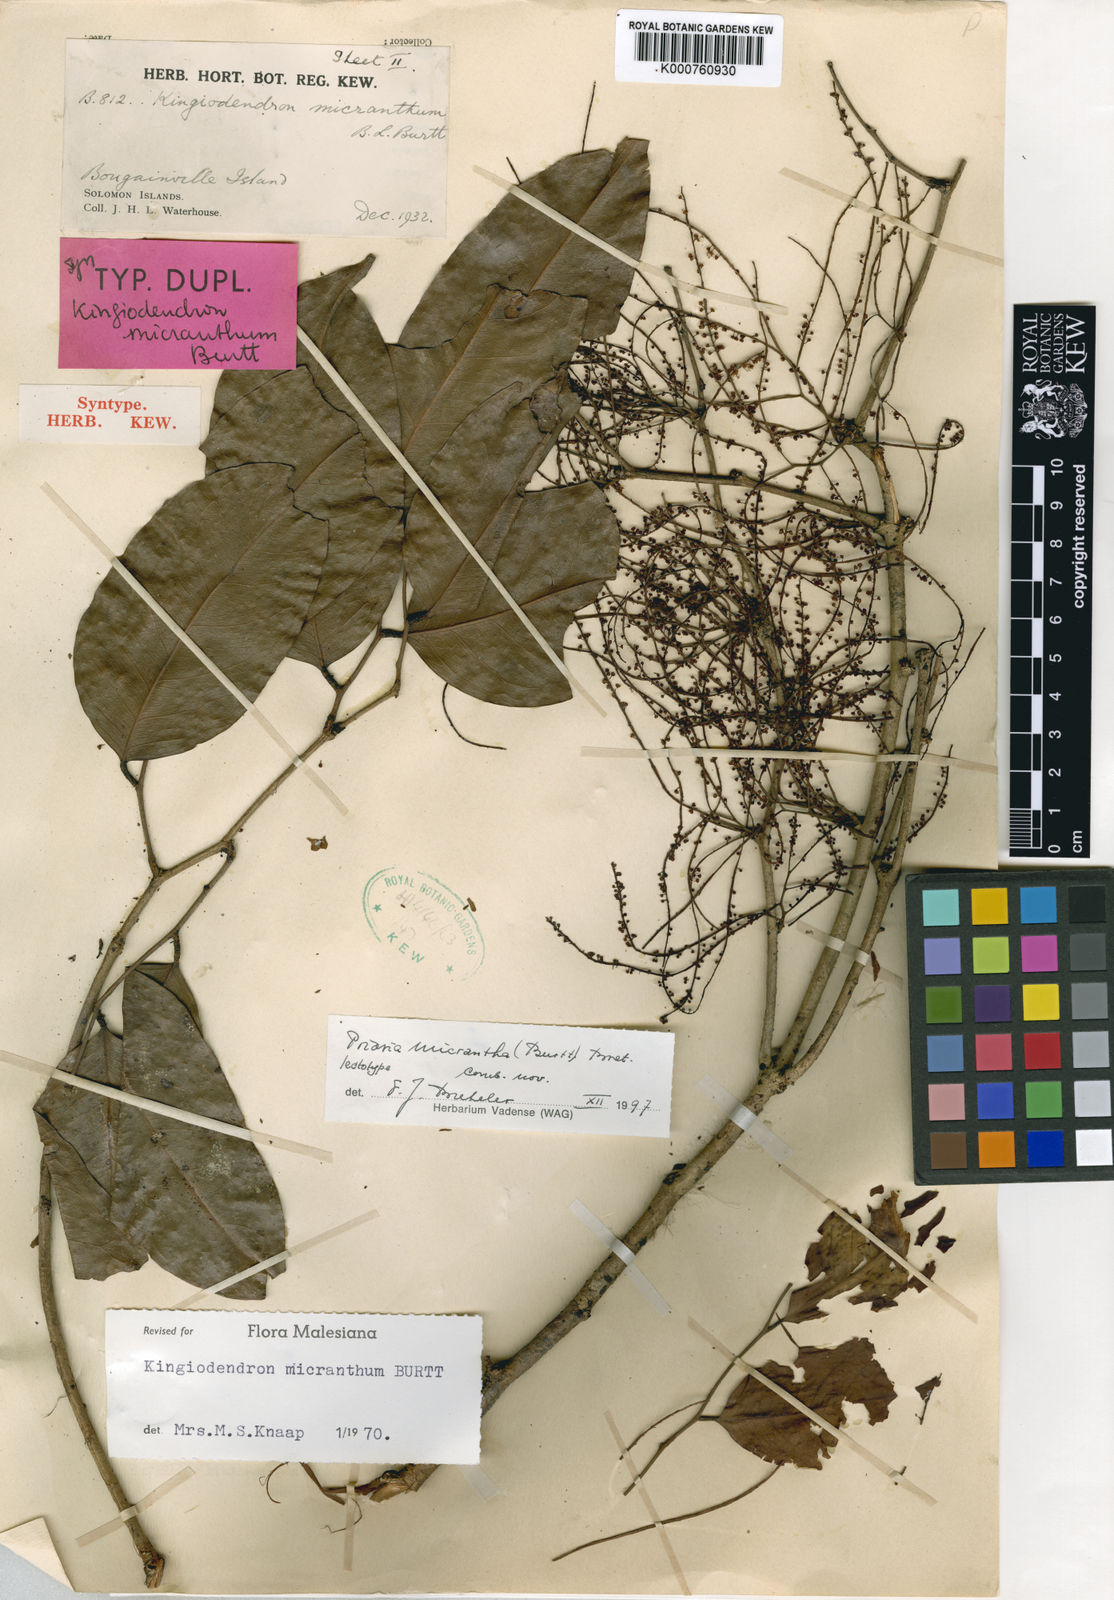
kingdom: Plantae
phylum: Tracheophyta
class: Magnoliopsida
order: Fabales
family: Fabaceae
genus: Prioria
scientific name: Prioria alternifolia
